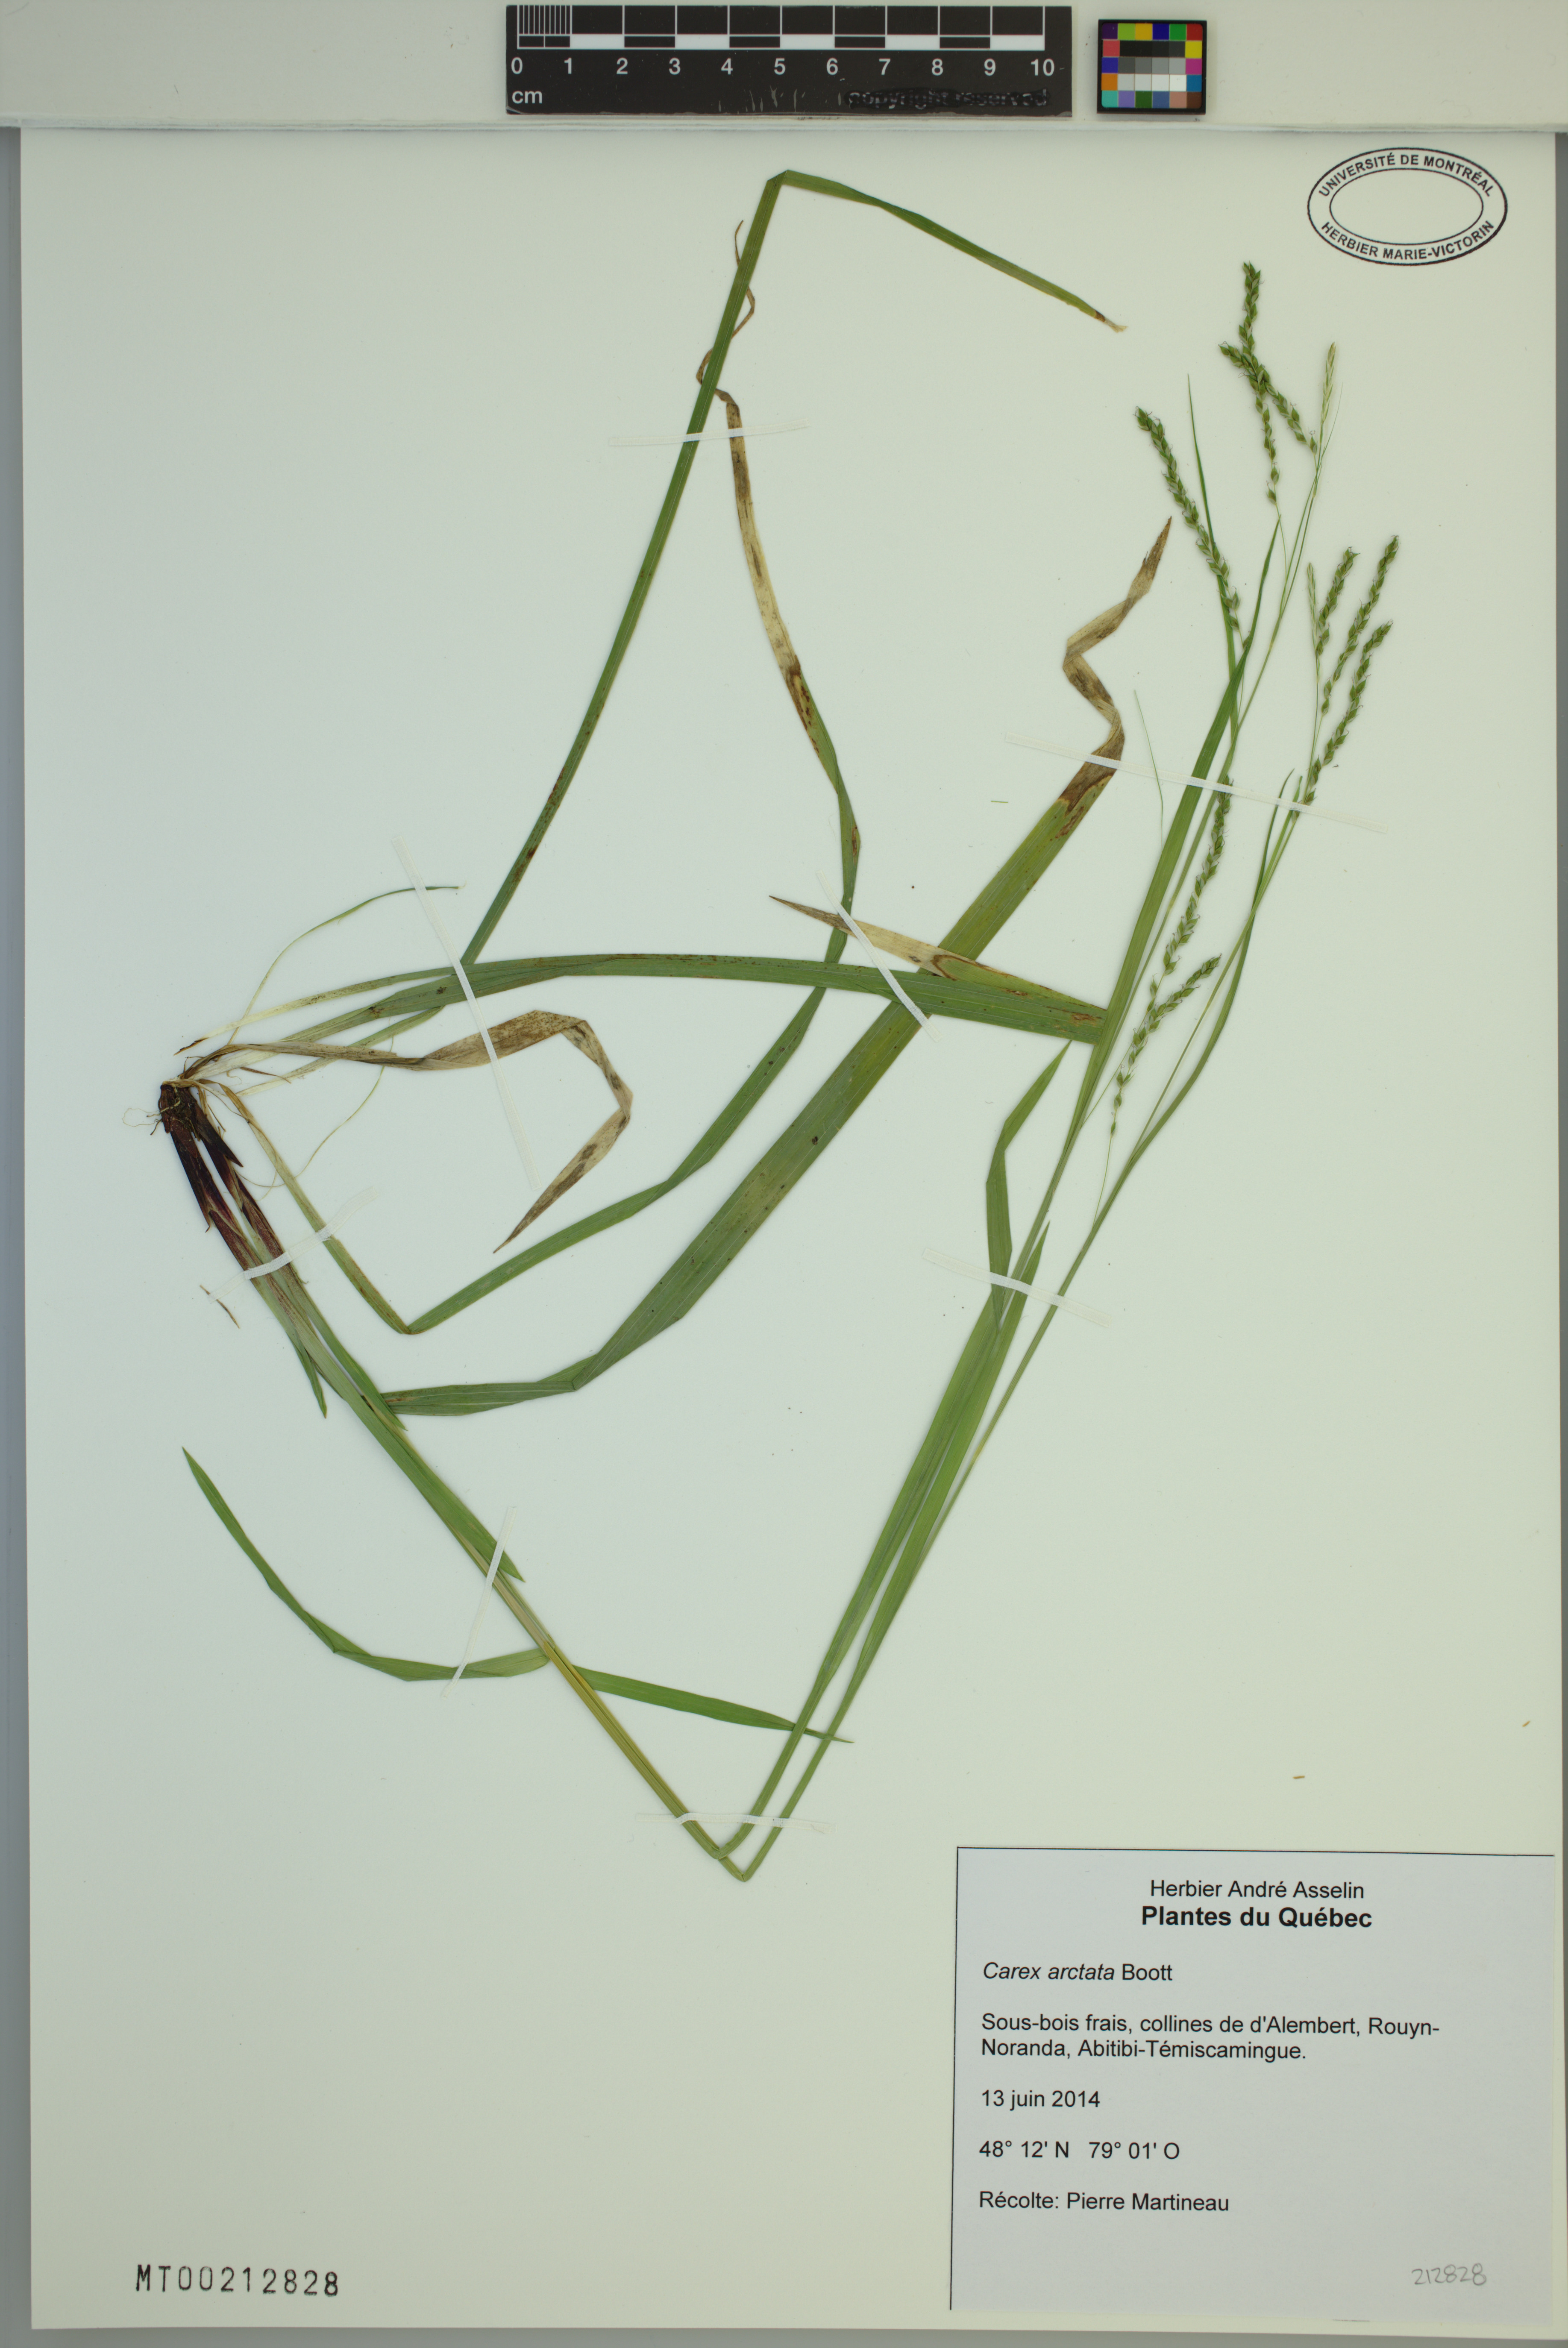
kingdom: Plantae
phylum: Tracheophyta
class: Liliopsida
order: Poales
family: Cyperaceae
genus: Carex
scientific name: Carex arctata
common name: Black sedge
